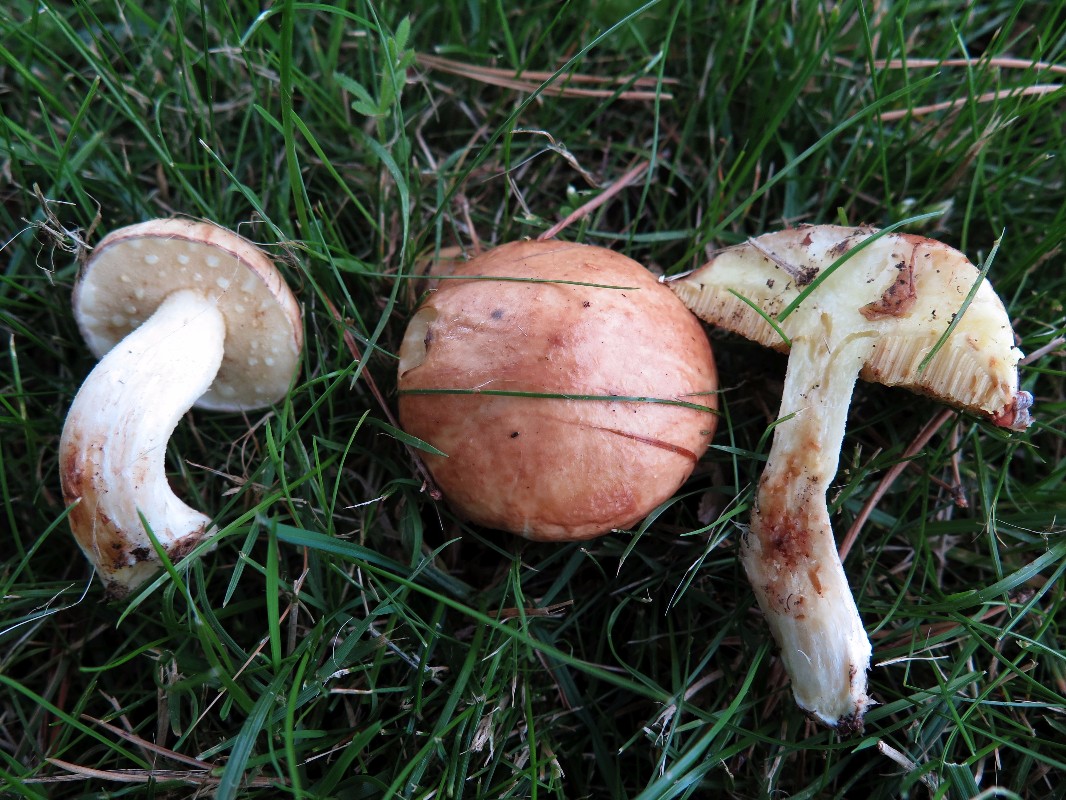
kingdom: Fungi
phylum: Basidiomycota
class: Agaricomycetes
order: Boletales
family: Suillaceae
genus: Suillus
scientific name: Suillus granulatus
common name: kornet slimrørhat
